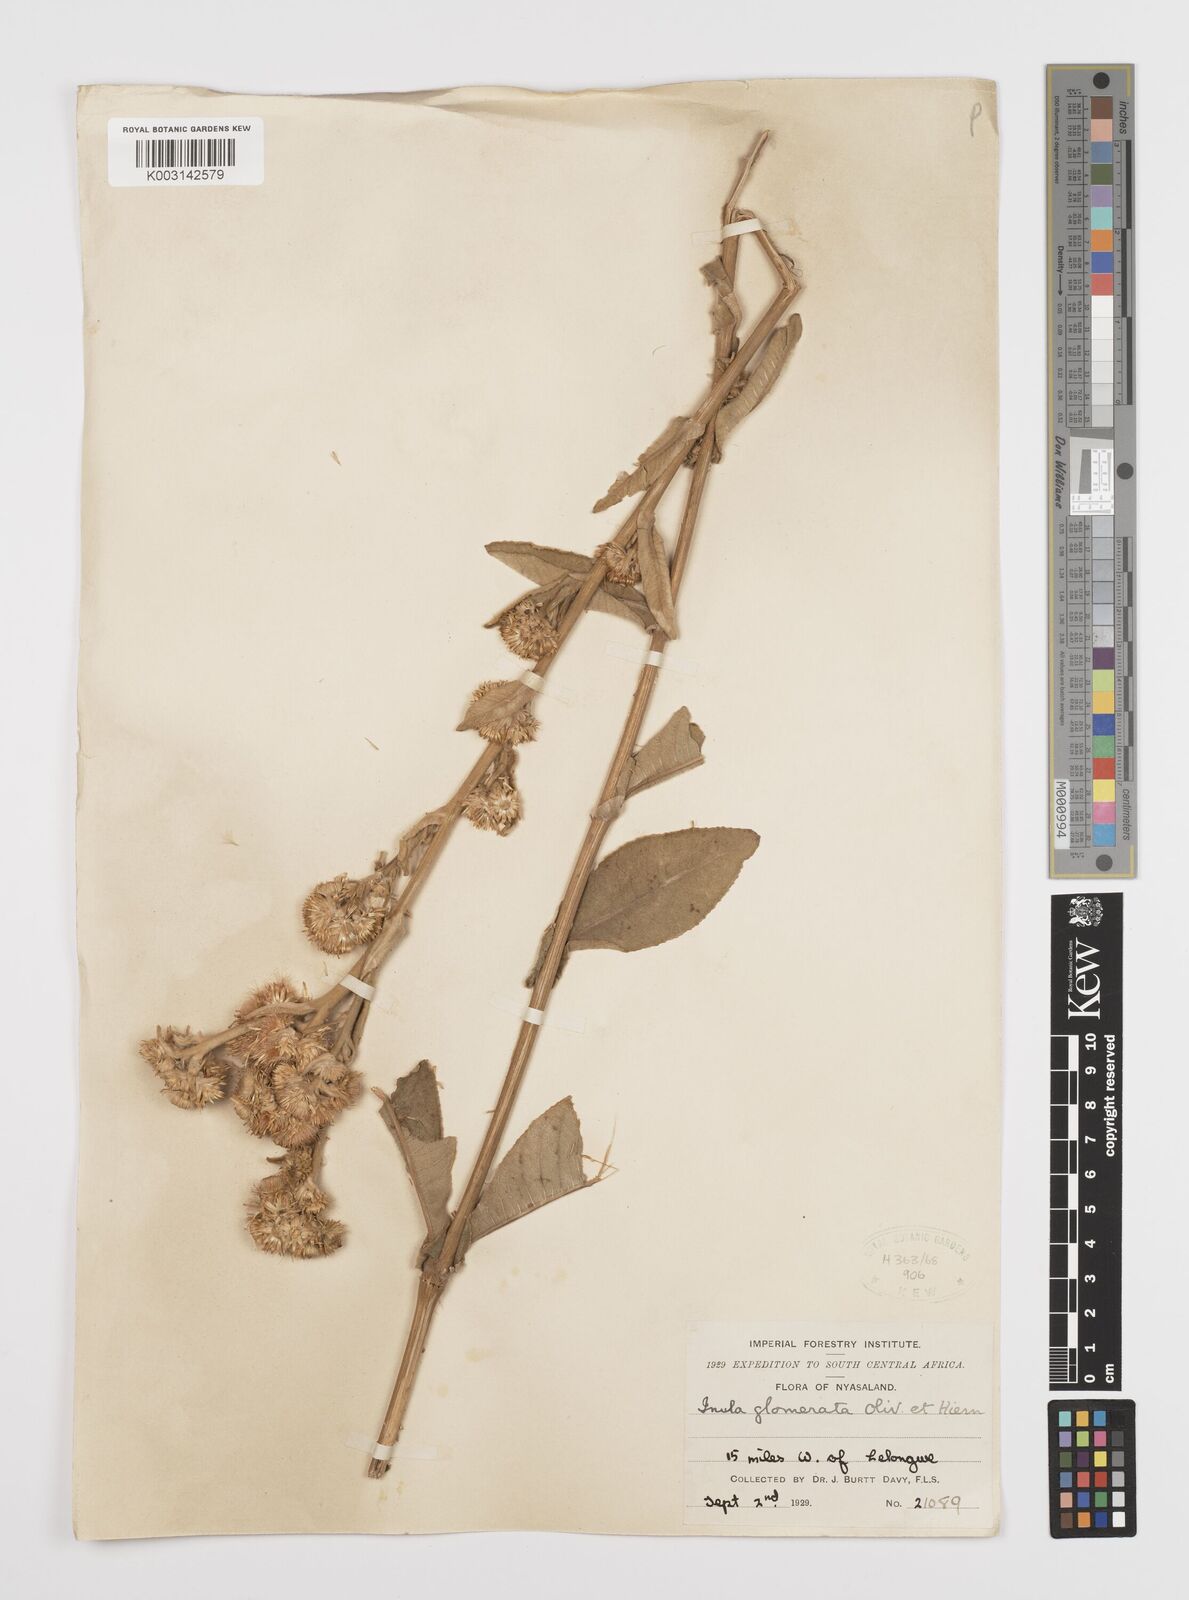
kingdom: Plantae
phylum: Tracheophyta
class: Magnoliopsida
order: Asterales
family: Asteraceae
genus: Inula
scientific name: Inula glomerata
